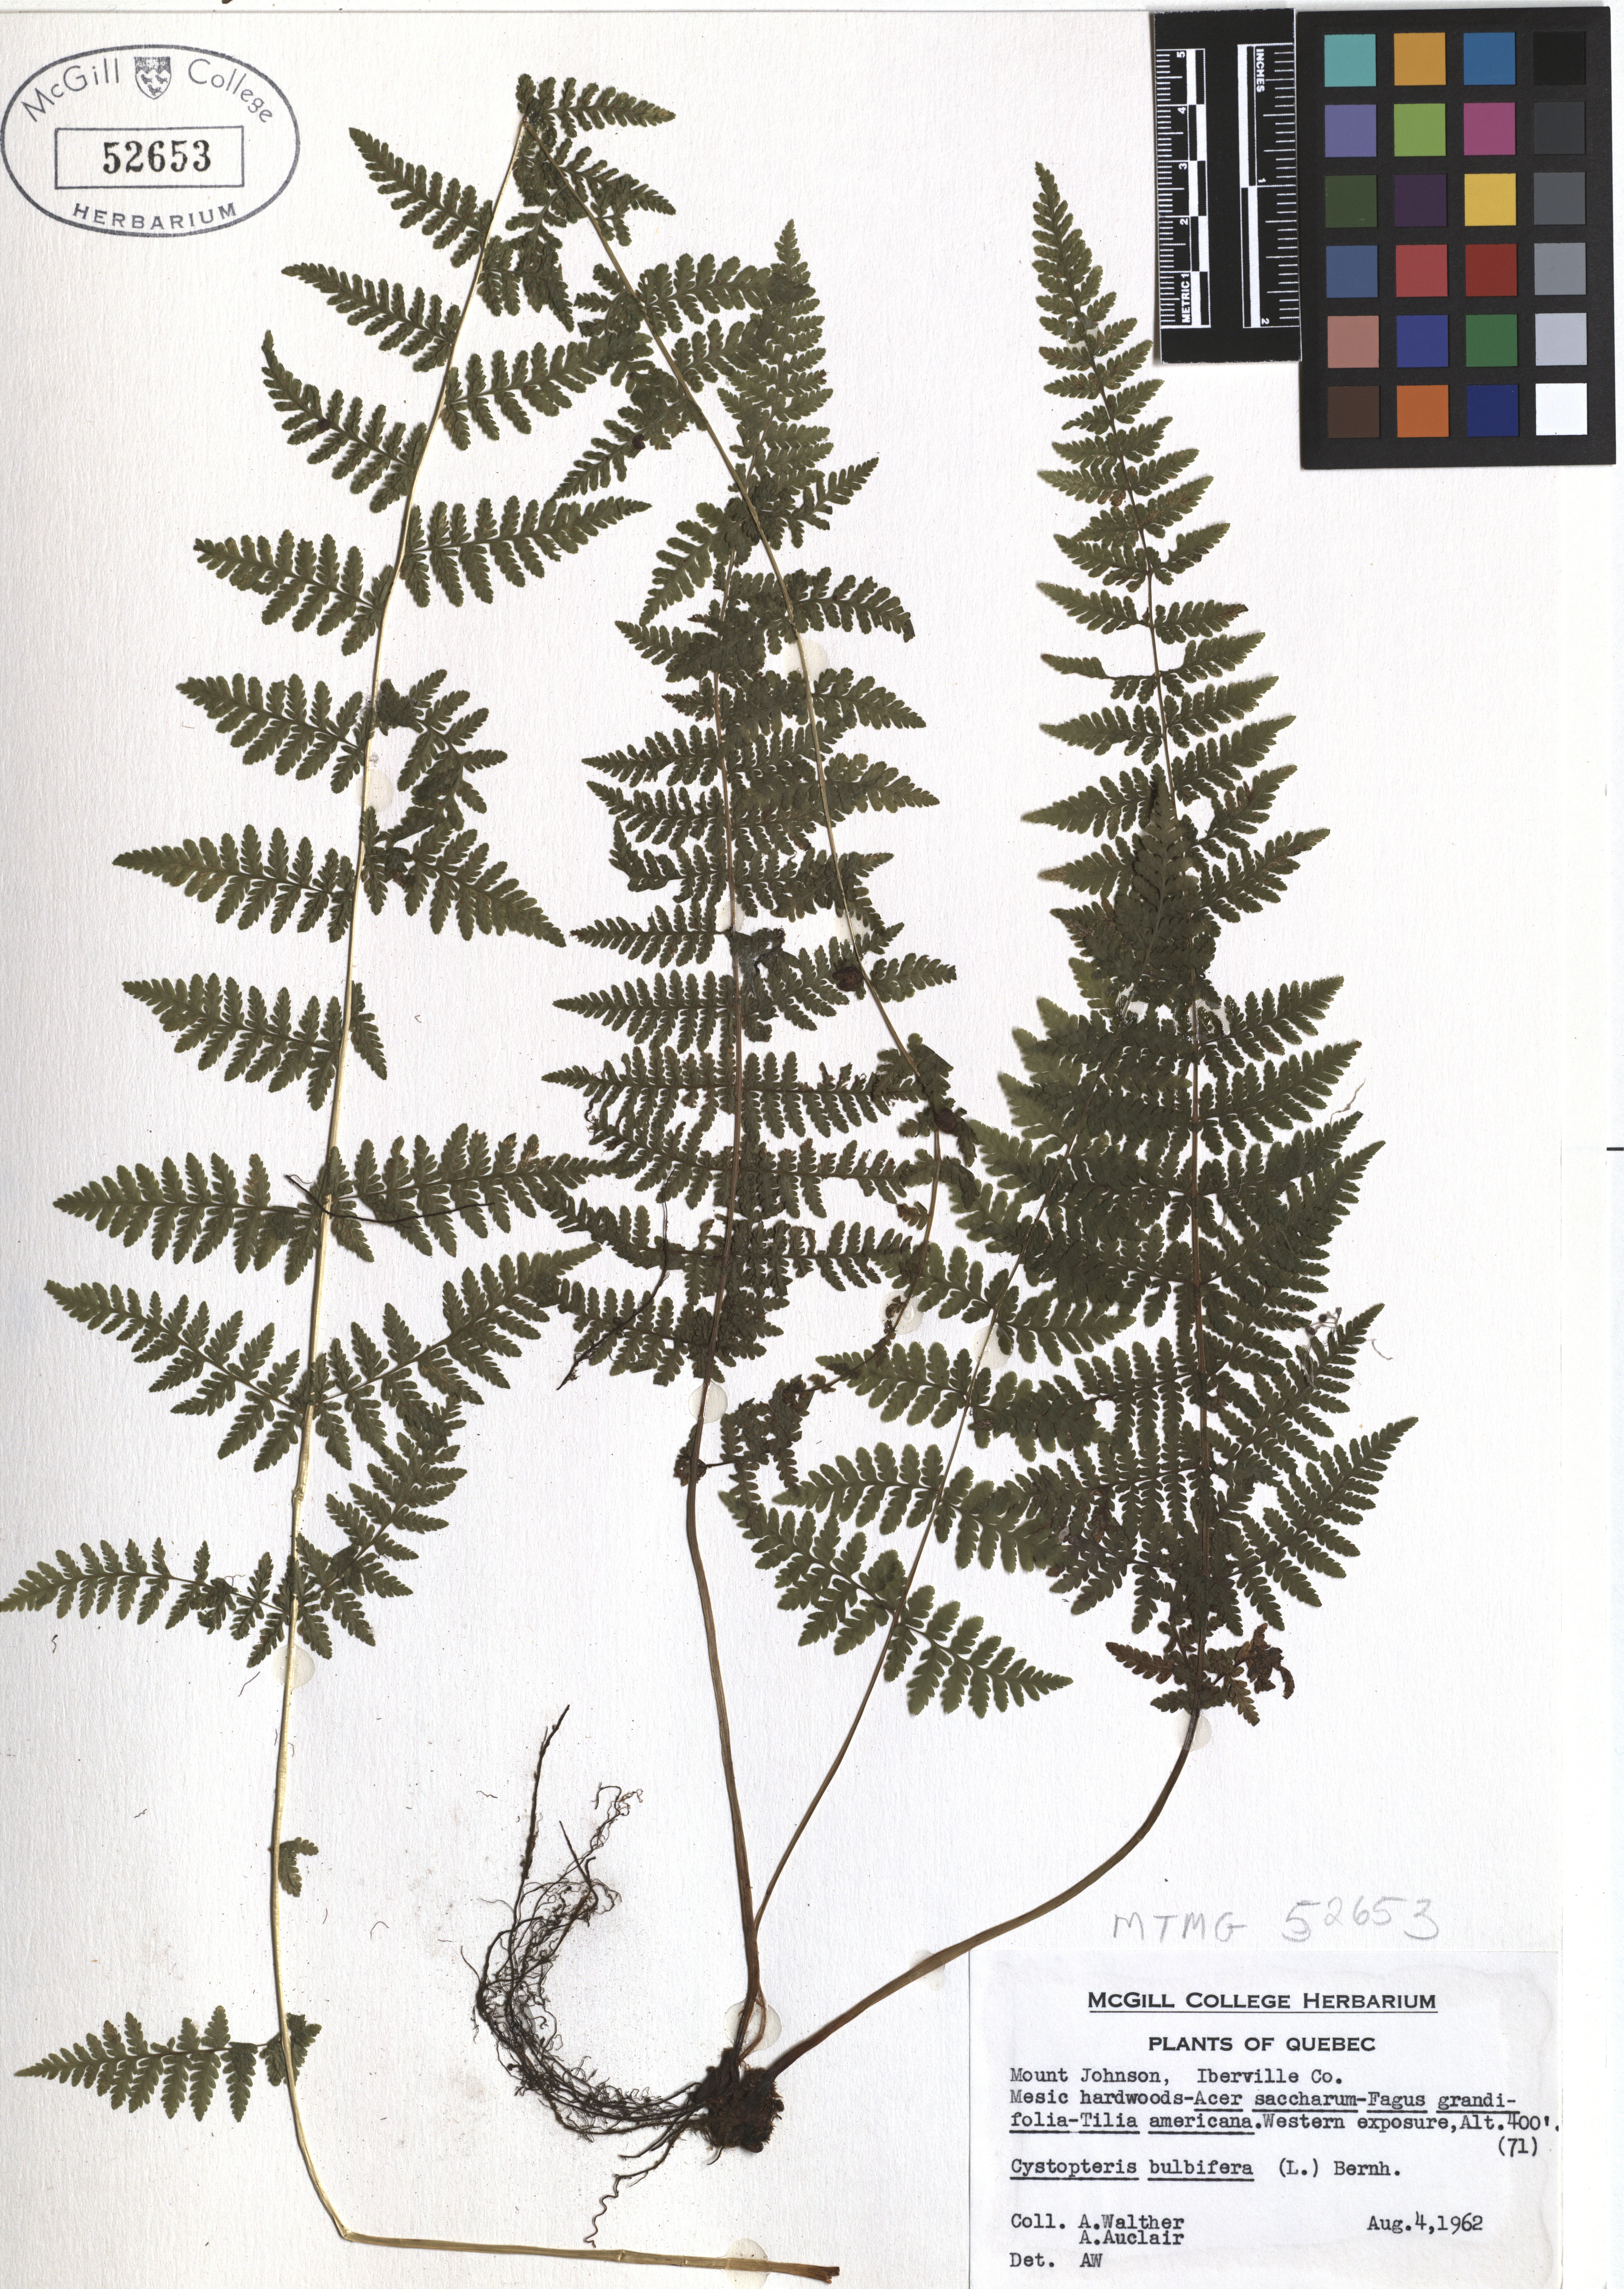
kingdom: Plantae
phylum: Tracheophyta
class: Polypodiopsida
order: Polypodiales
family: Cystopteridaceae
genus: Cystopteris
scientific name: Cystopteris bulbifera
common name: Bulblet bladder fern
